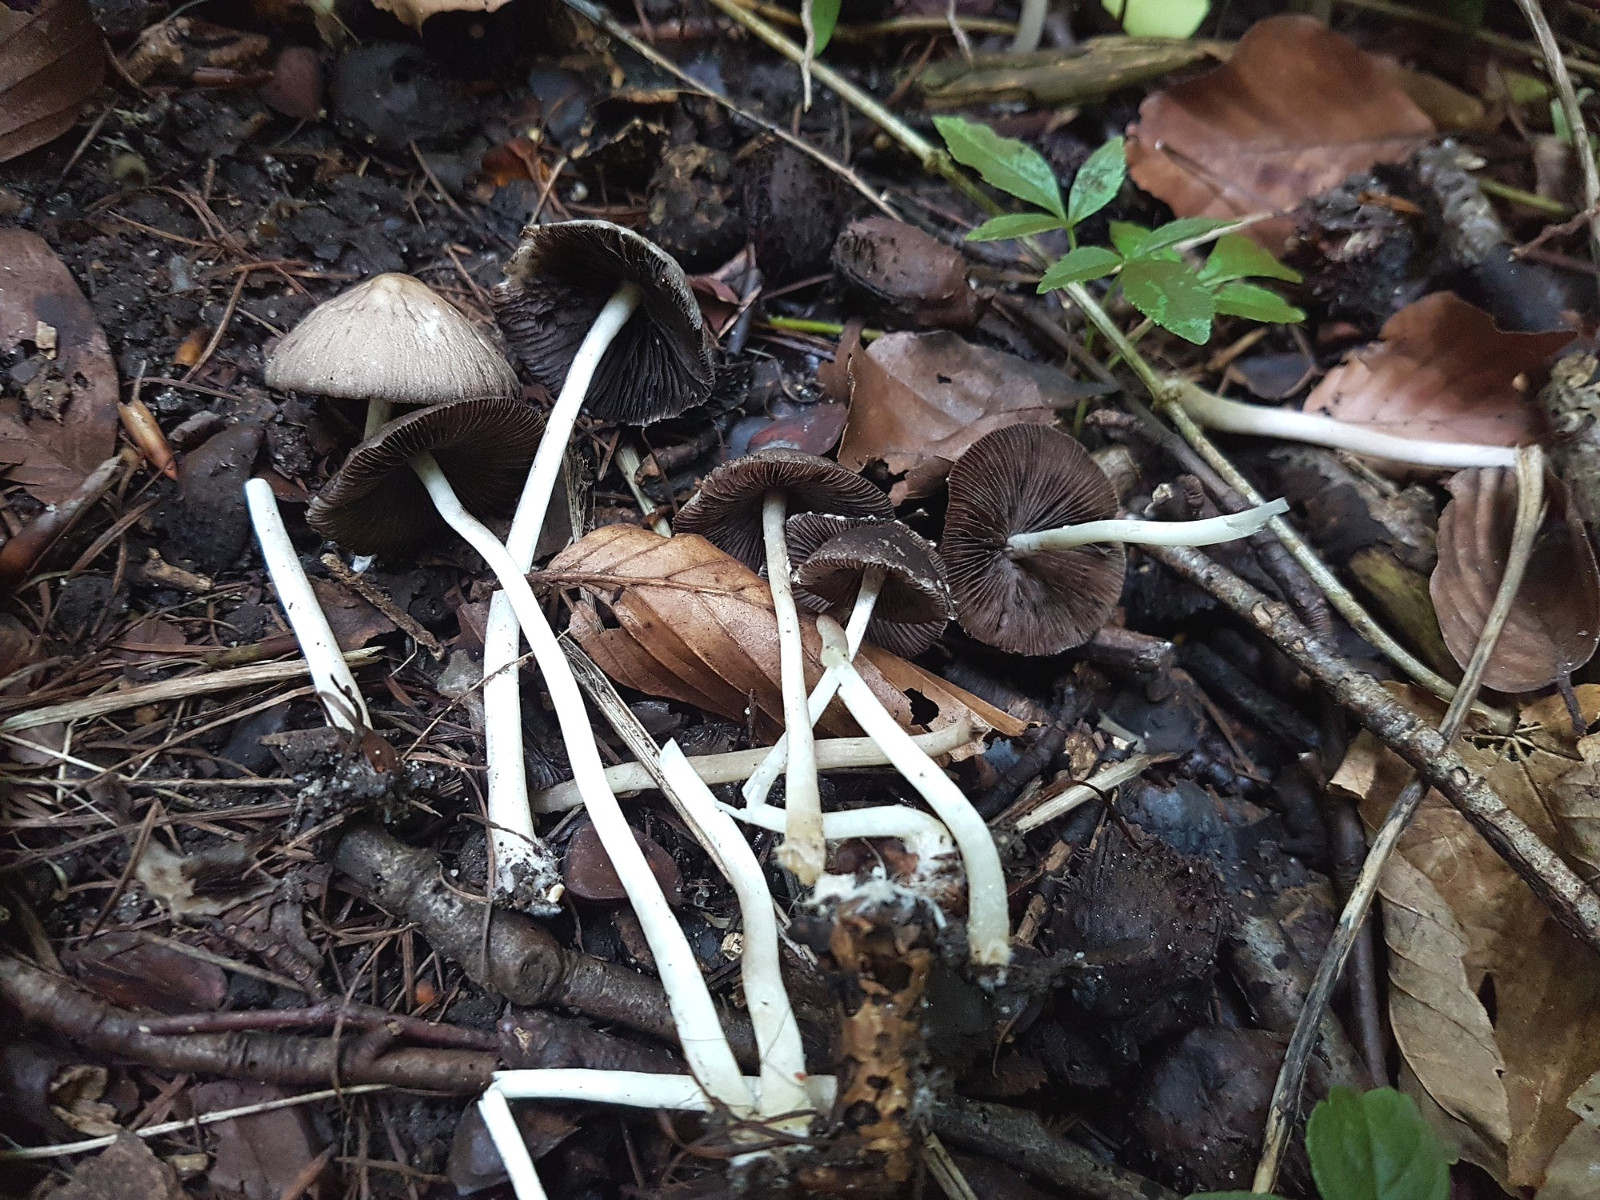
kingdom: Fungi
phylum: Basidiomycota
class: Agaricomycetes
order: Agaricales
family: Psathyrellaceae
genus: Psathyrella
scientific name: Psathyrella
